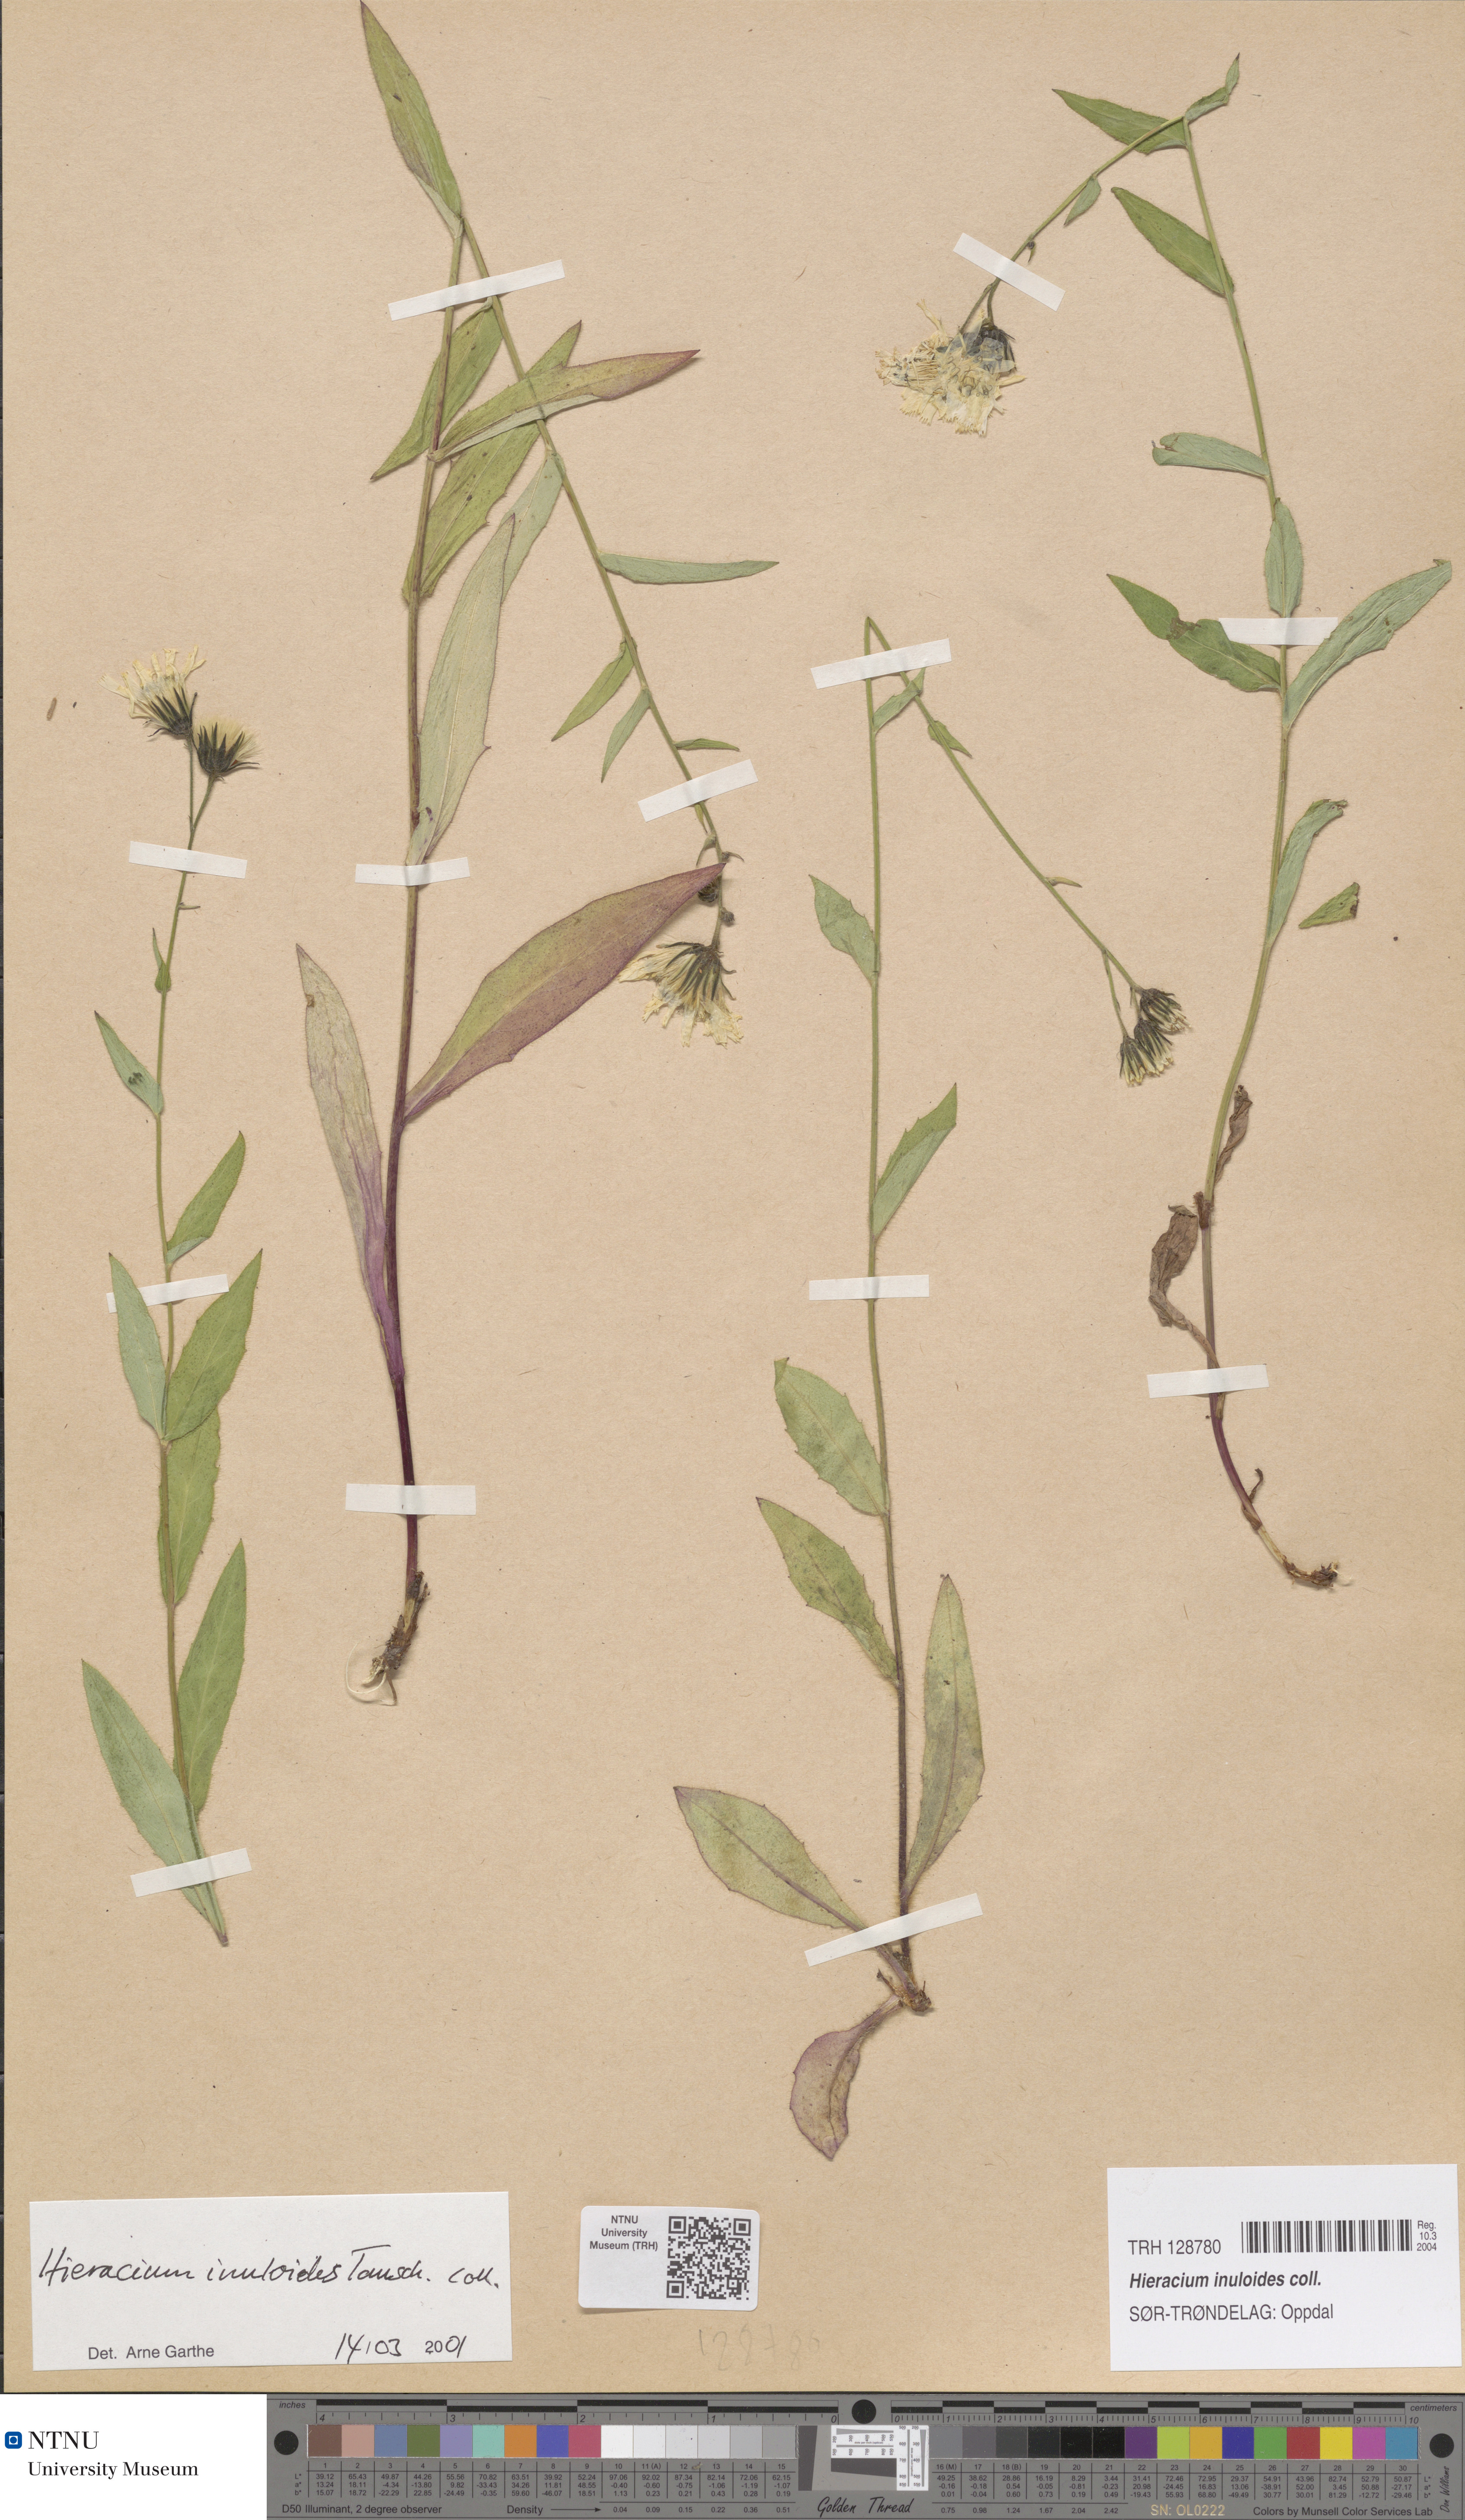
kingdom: Plantae
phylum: Tracheophyta
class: Magnoliopsida
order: Asterales
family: Asteraceae
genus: Hieracium
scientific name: Hieracium inuloides
